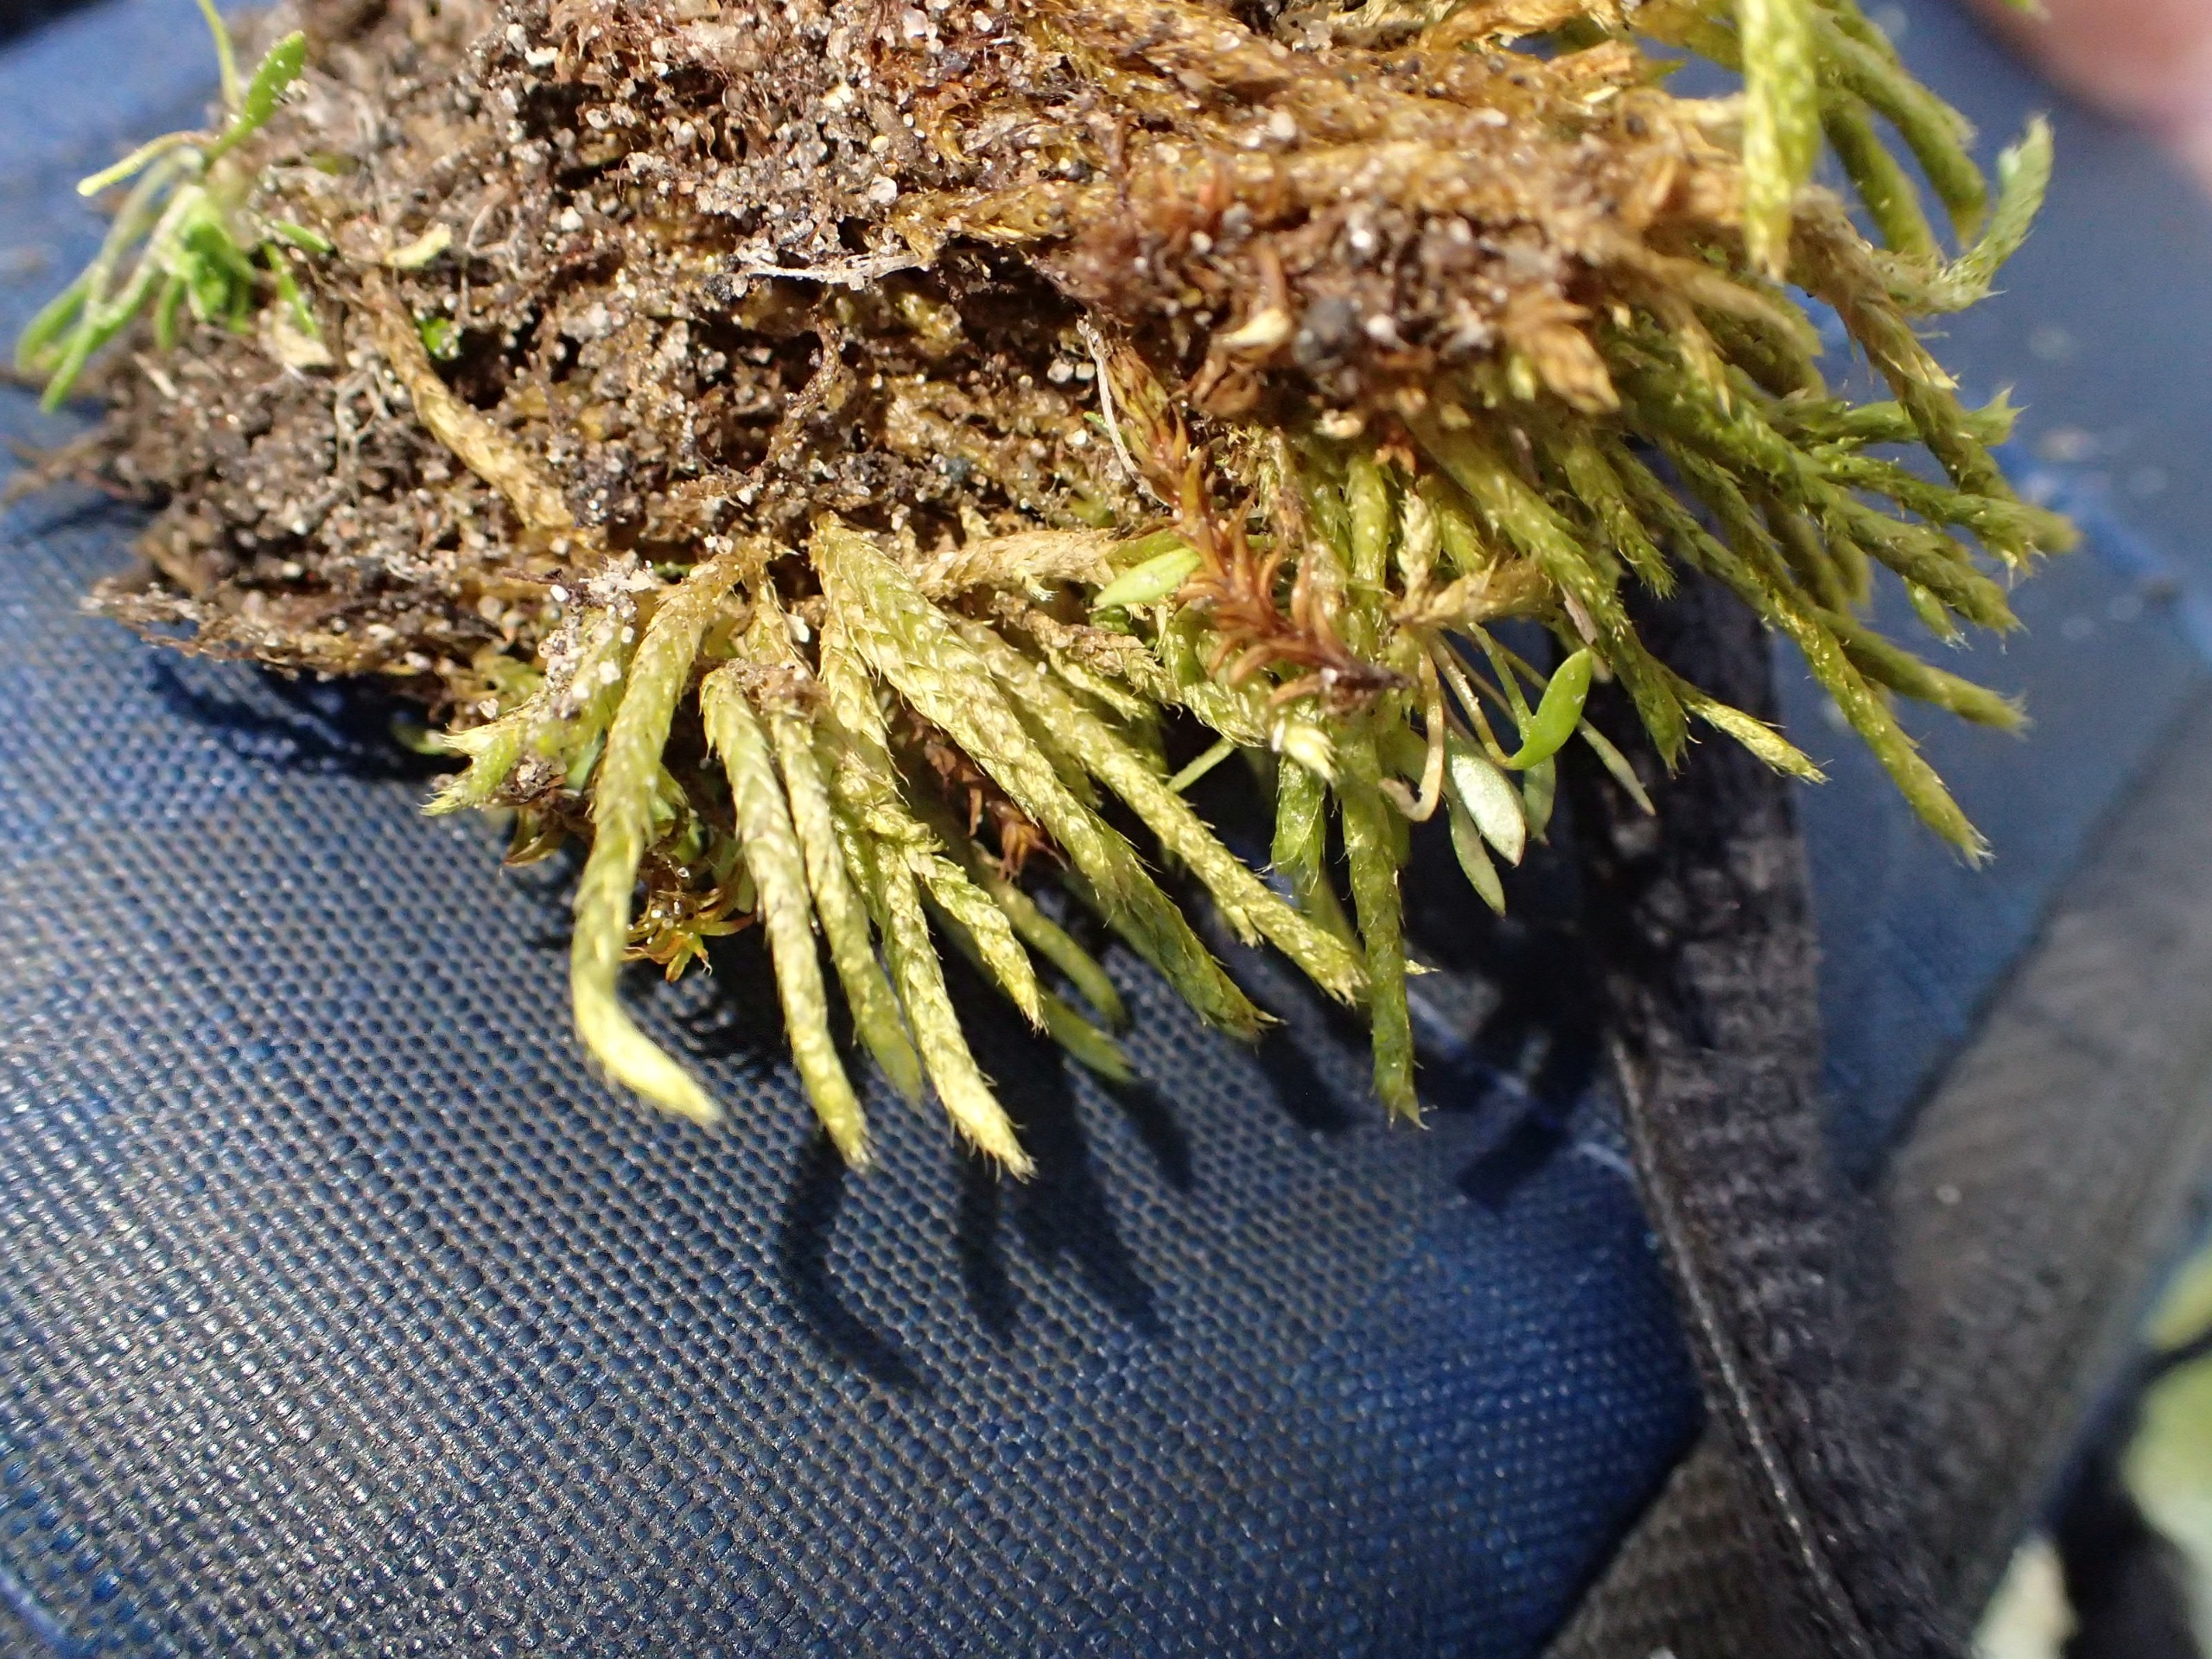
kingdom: Plantae
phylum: Bryophyta
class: Bryopsida
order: Hypnales
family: Brachytheciaceae
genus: Brachythecium
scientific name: Brachythecium albicans
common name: Hvidlig kortkapsel
